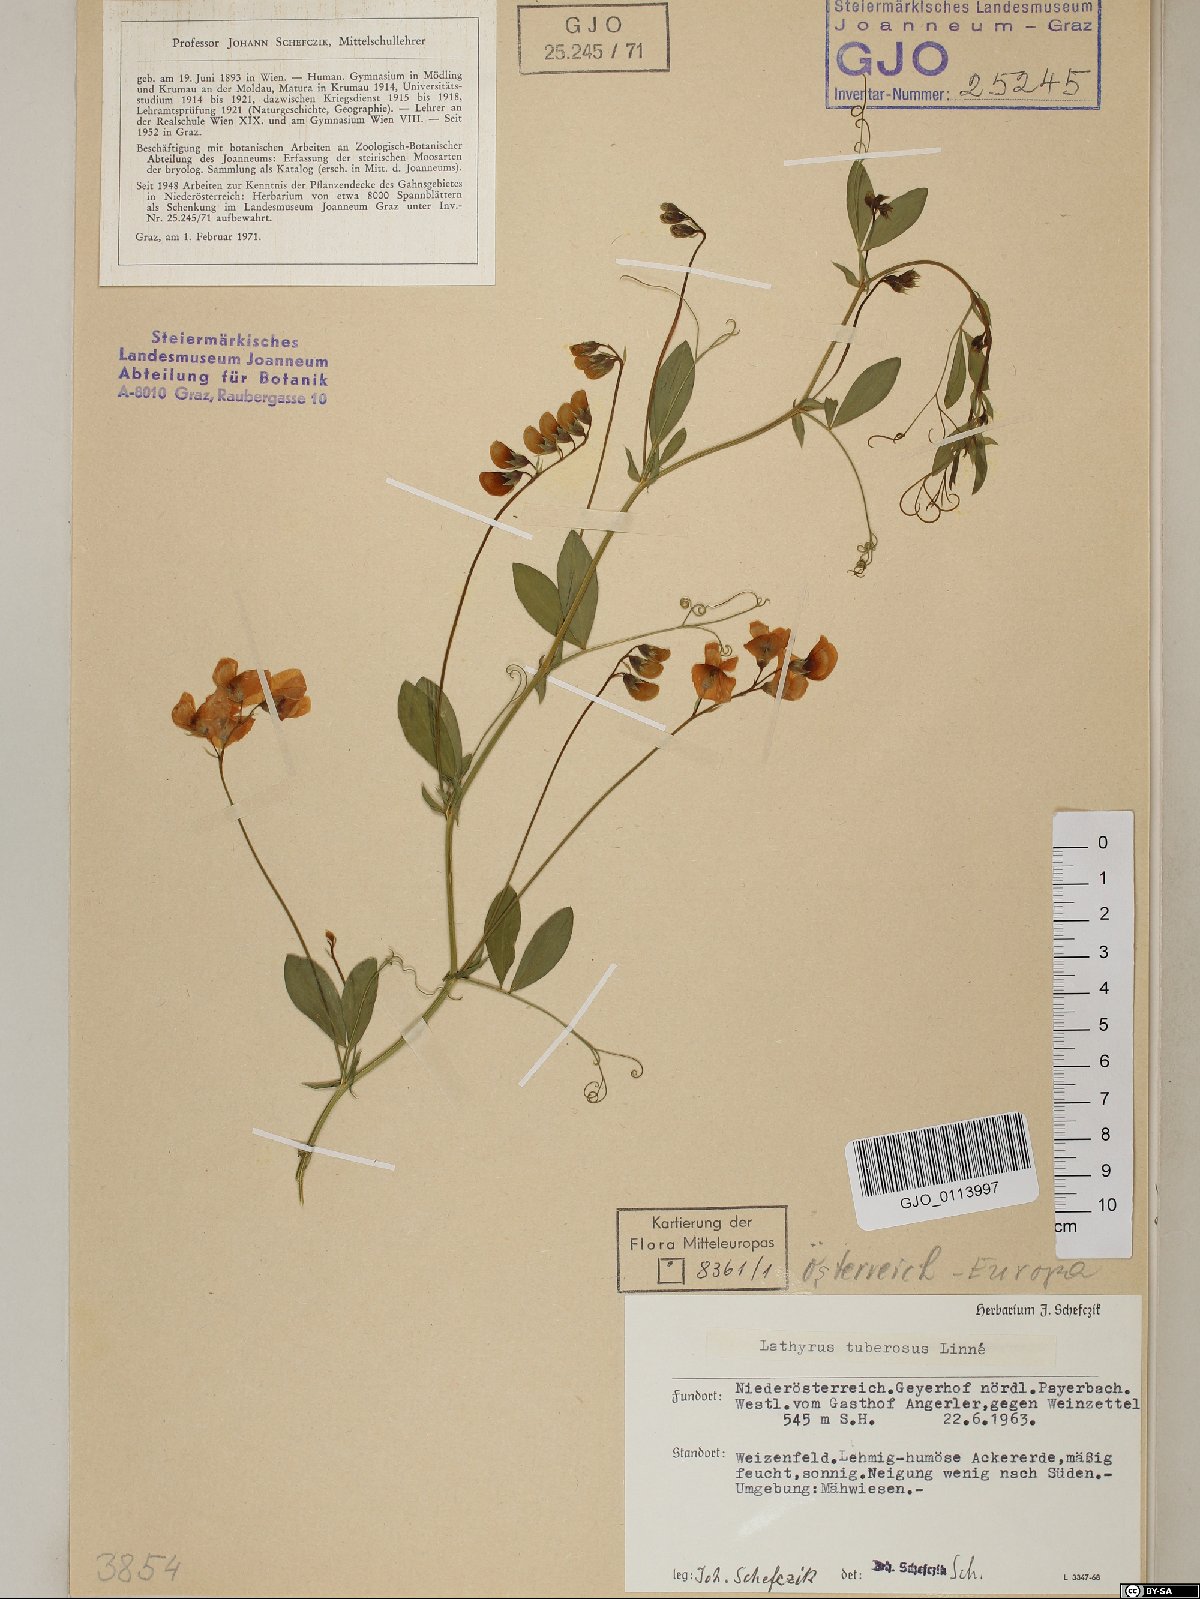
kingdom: Plantae
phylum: Tracheophyta
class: Magnoliopsida
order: Fabales
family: Fabaceae
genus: Lathyrus
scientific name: Lathyrus tuberosus
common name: Tuberous pea
